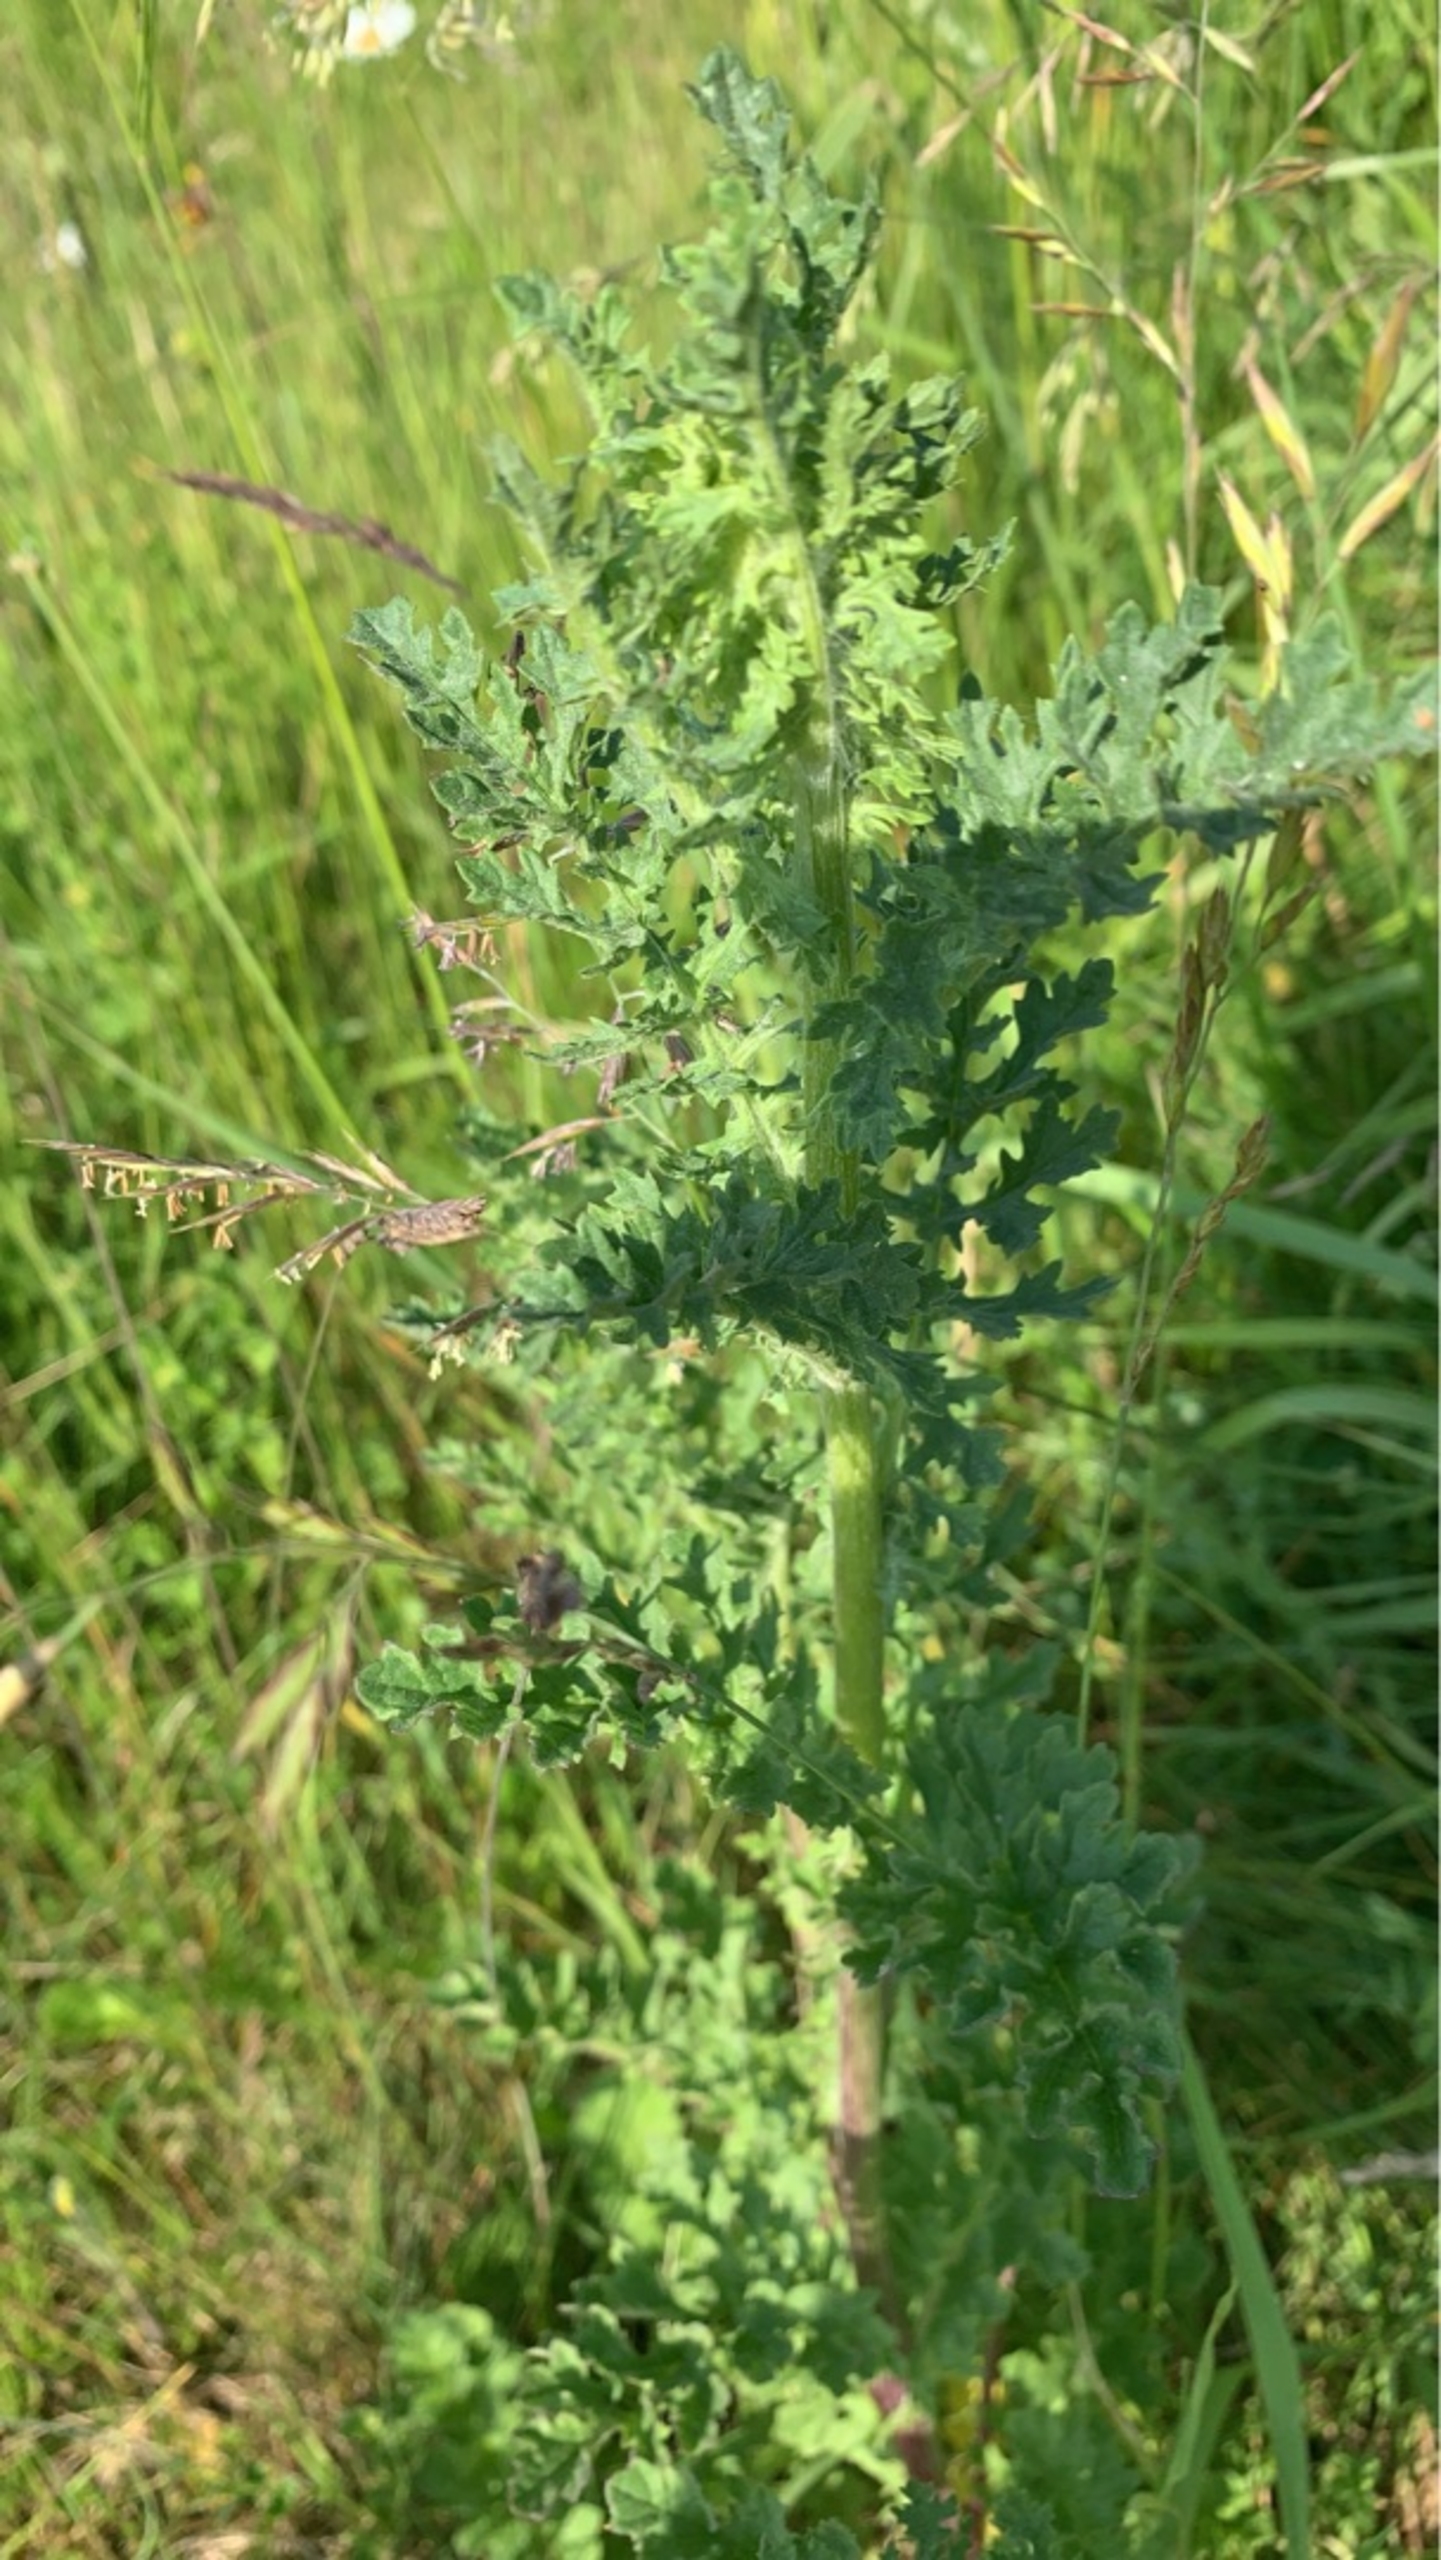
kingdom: Plantae
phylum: Tracheophyta
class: Magnoliopsida
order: Asterales
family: Asteraceae
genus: Jacobaea
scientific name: Jacobaea vulgaris
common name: Eng-brandbæger
